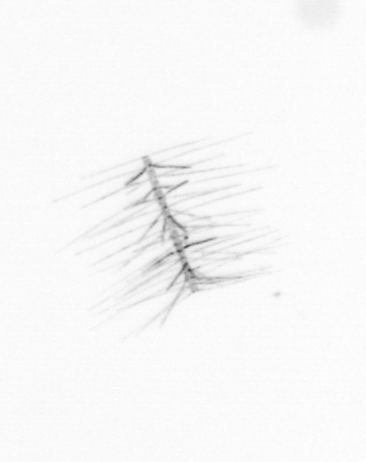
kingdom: Chromista
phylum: Ochrophyta
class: Bacillariophyceae
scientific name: Bacillariophyceae
